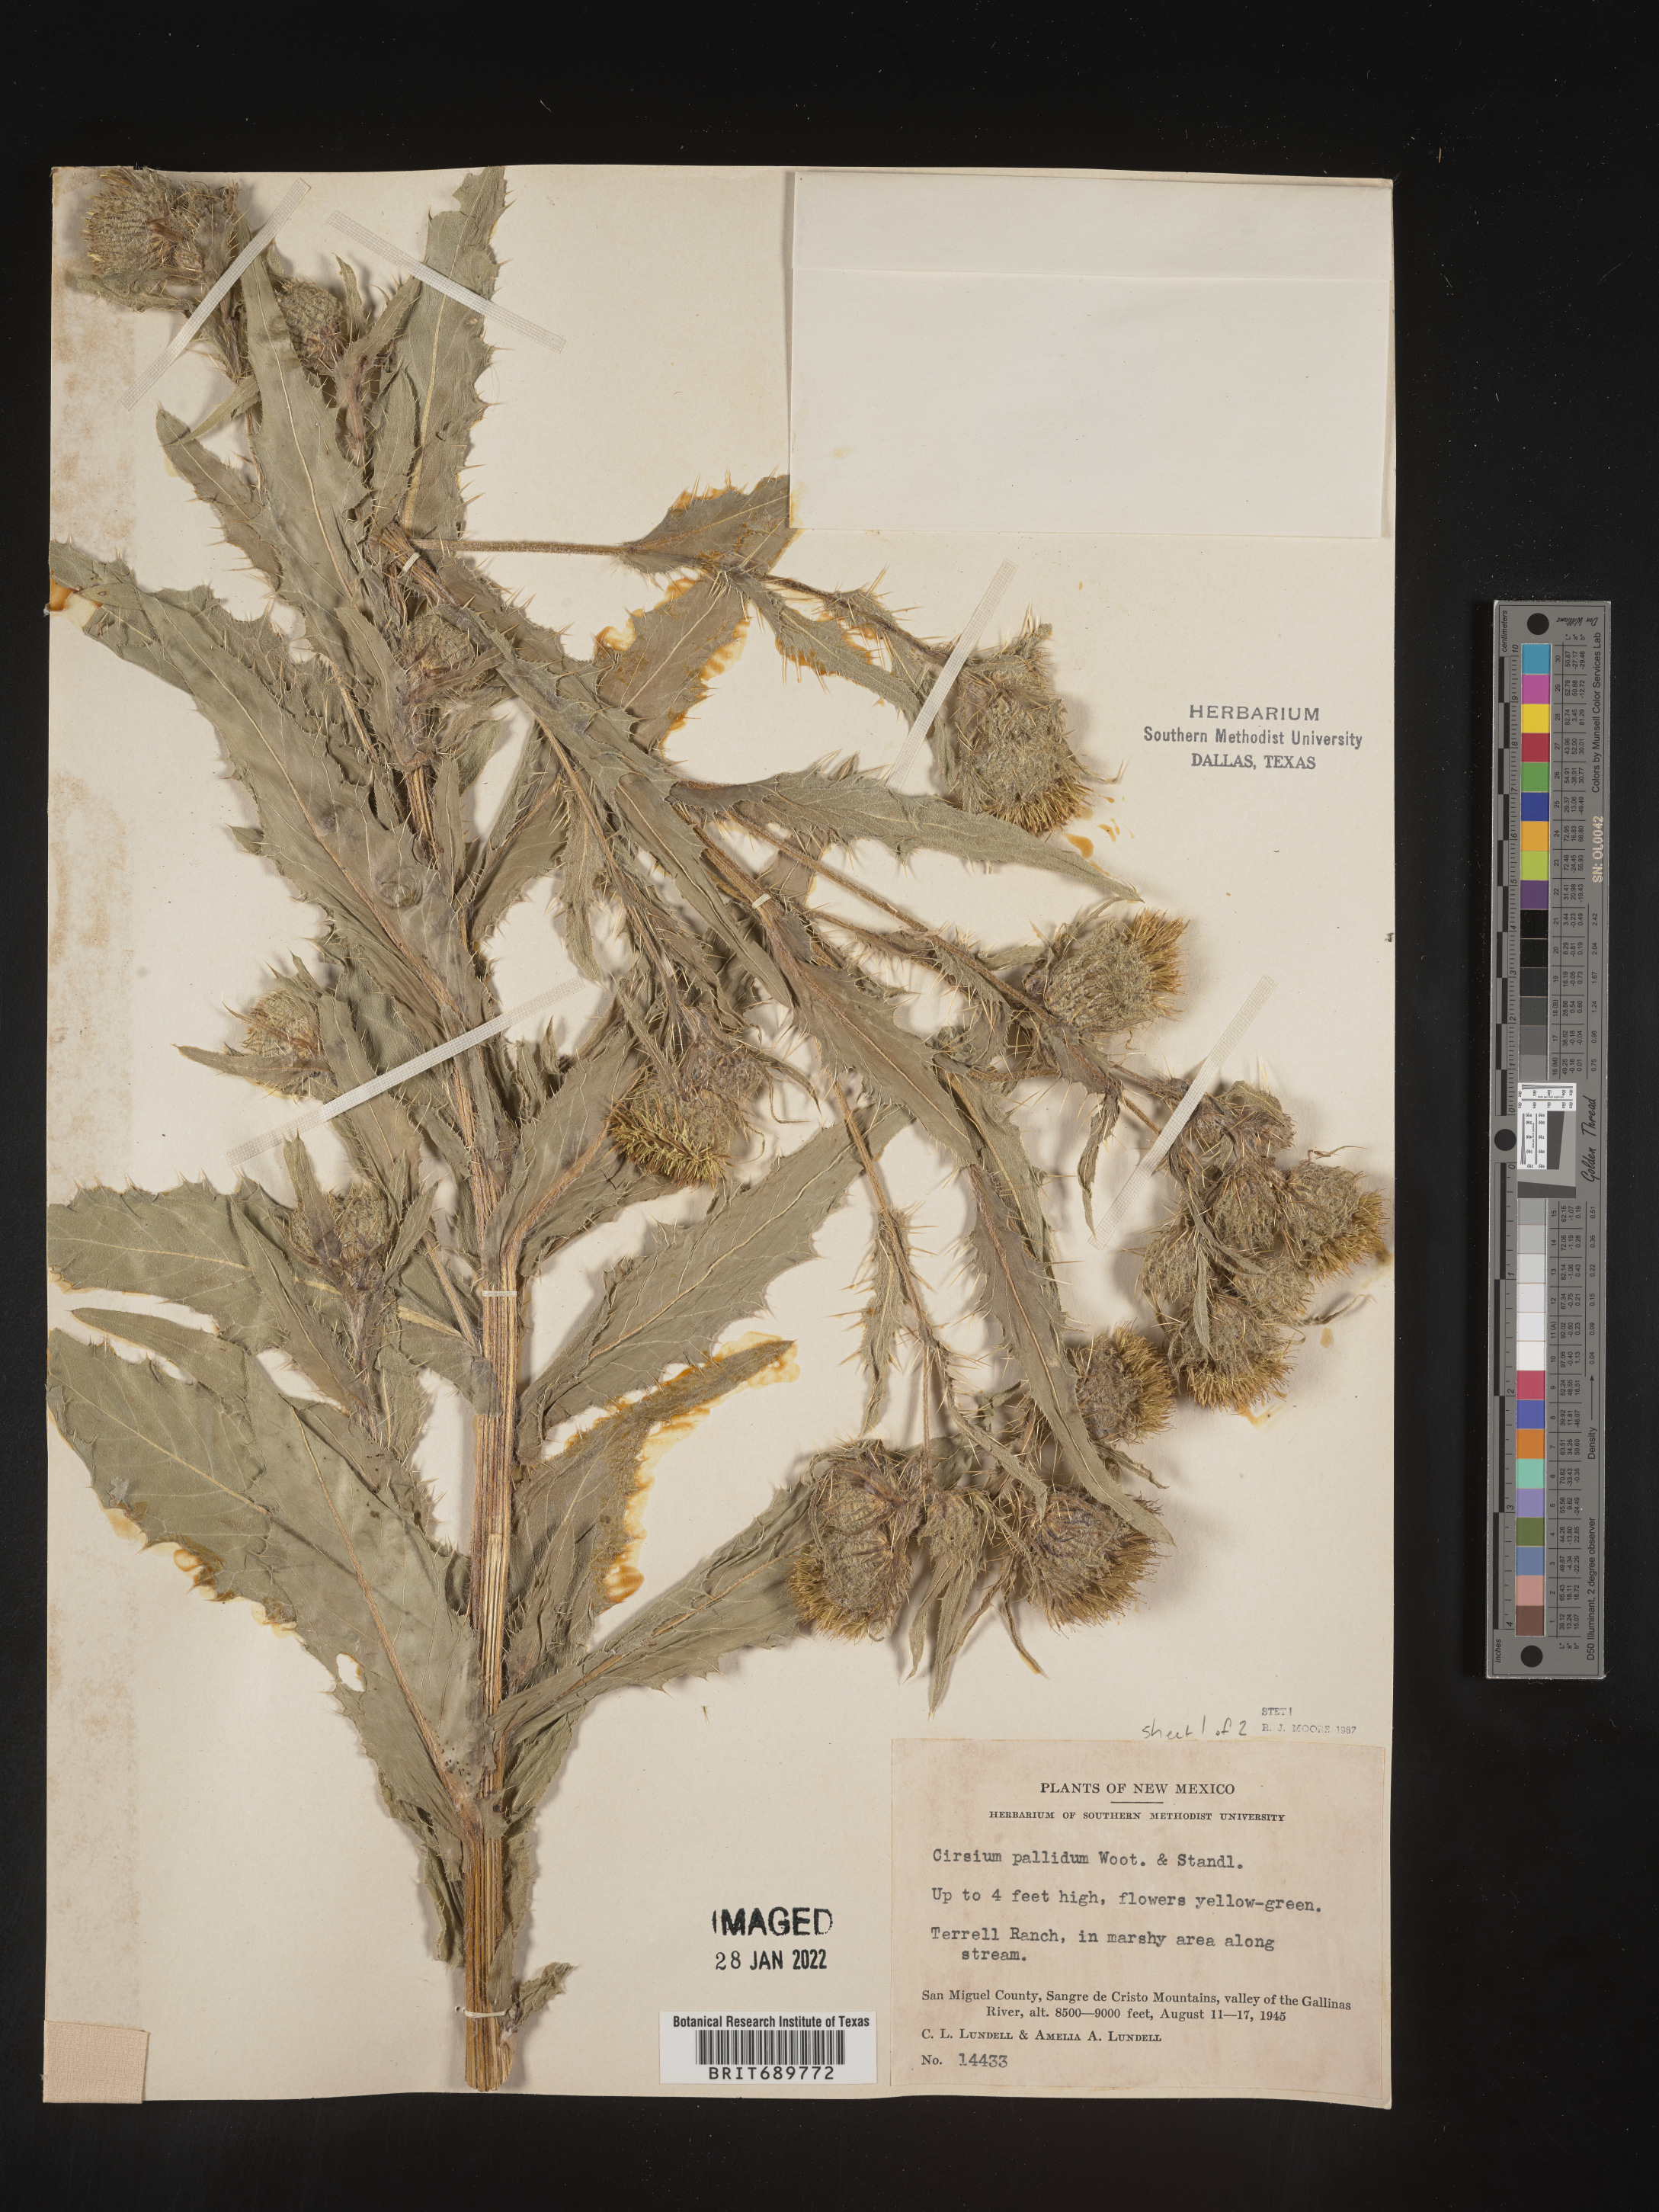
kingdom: Plantae
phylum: Tracheophyta
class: Magnoliopsida
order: Asterales
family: Asteraceae
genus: Cirsium
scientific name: Cirsium parryi
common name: Parry's thistle
